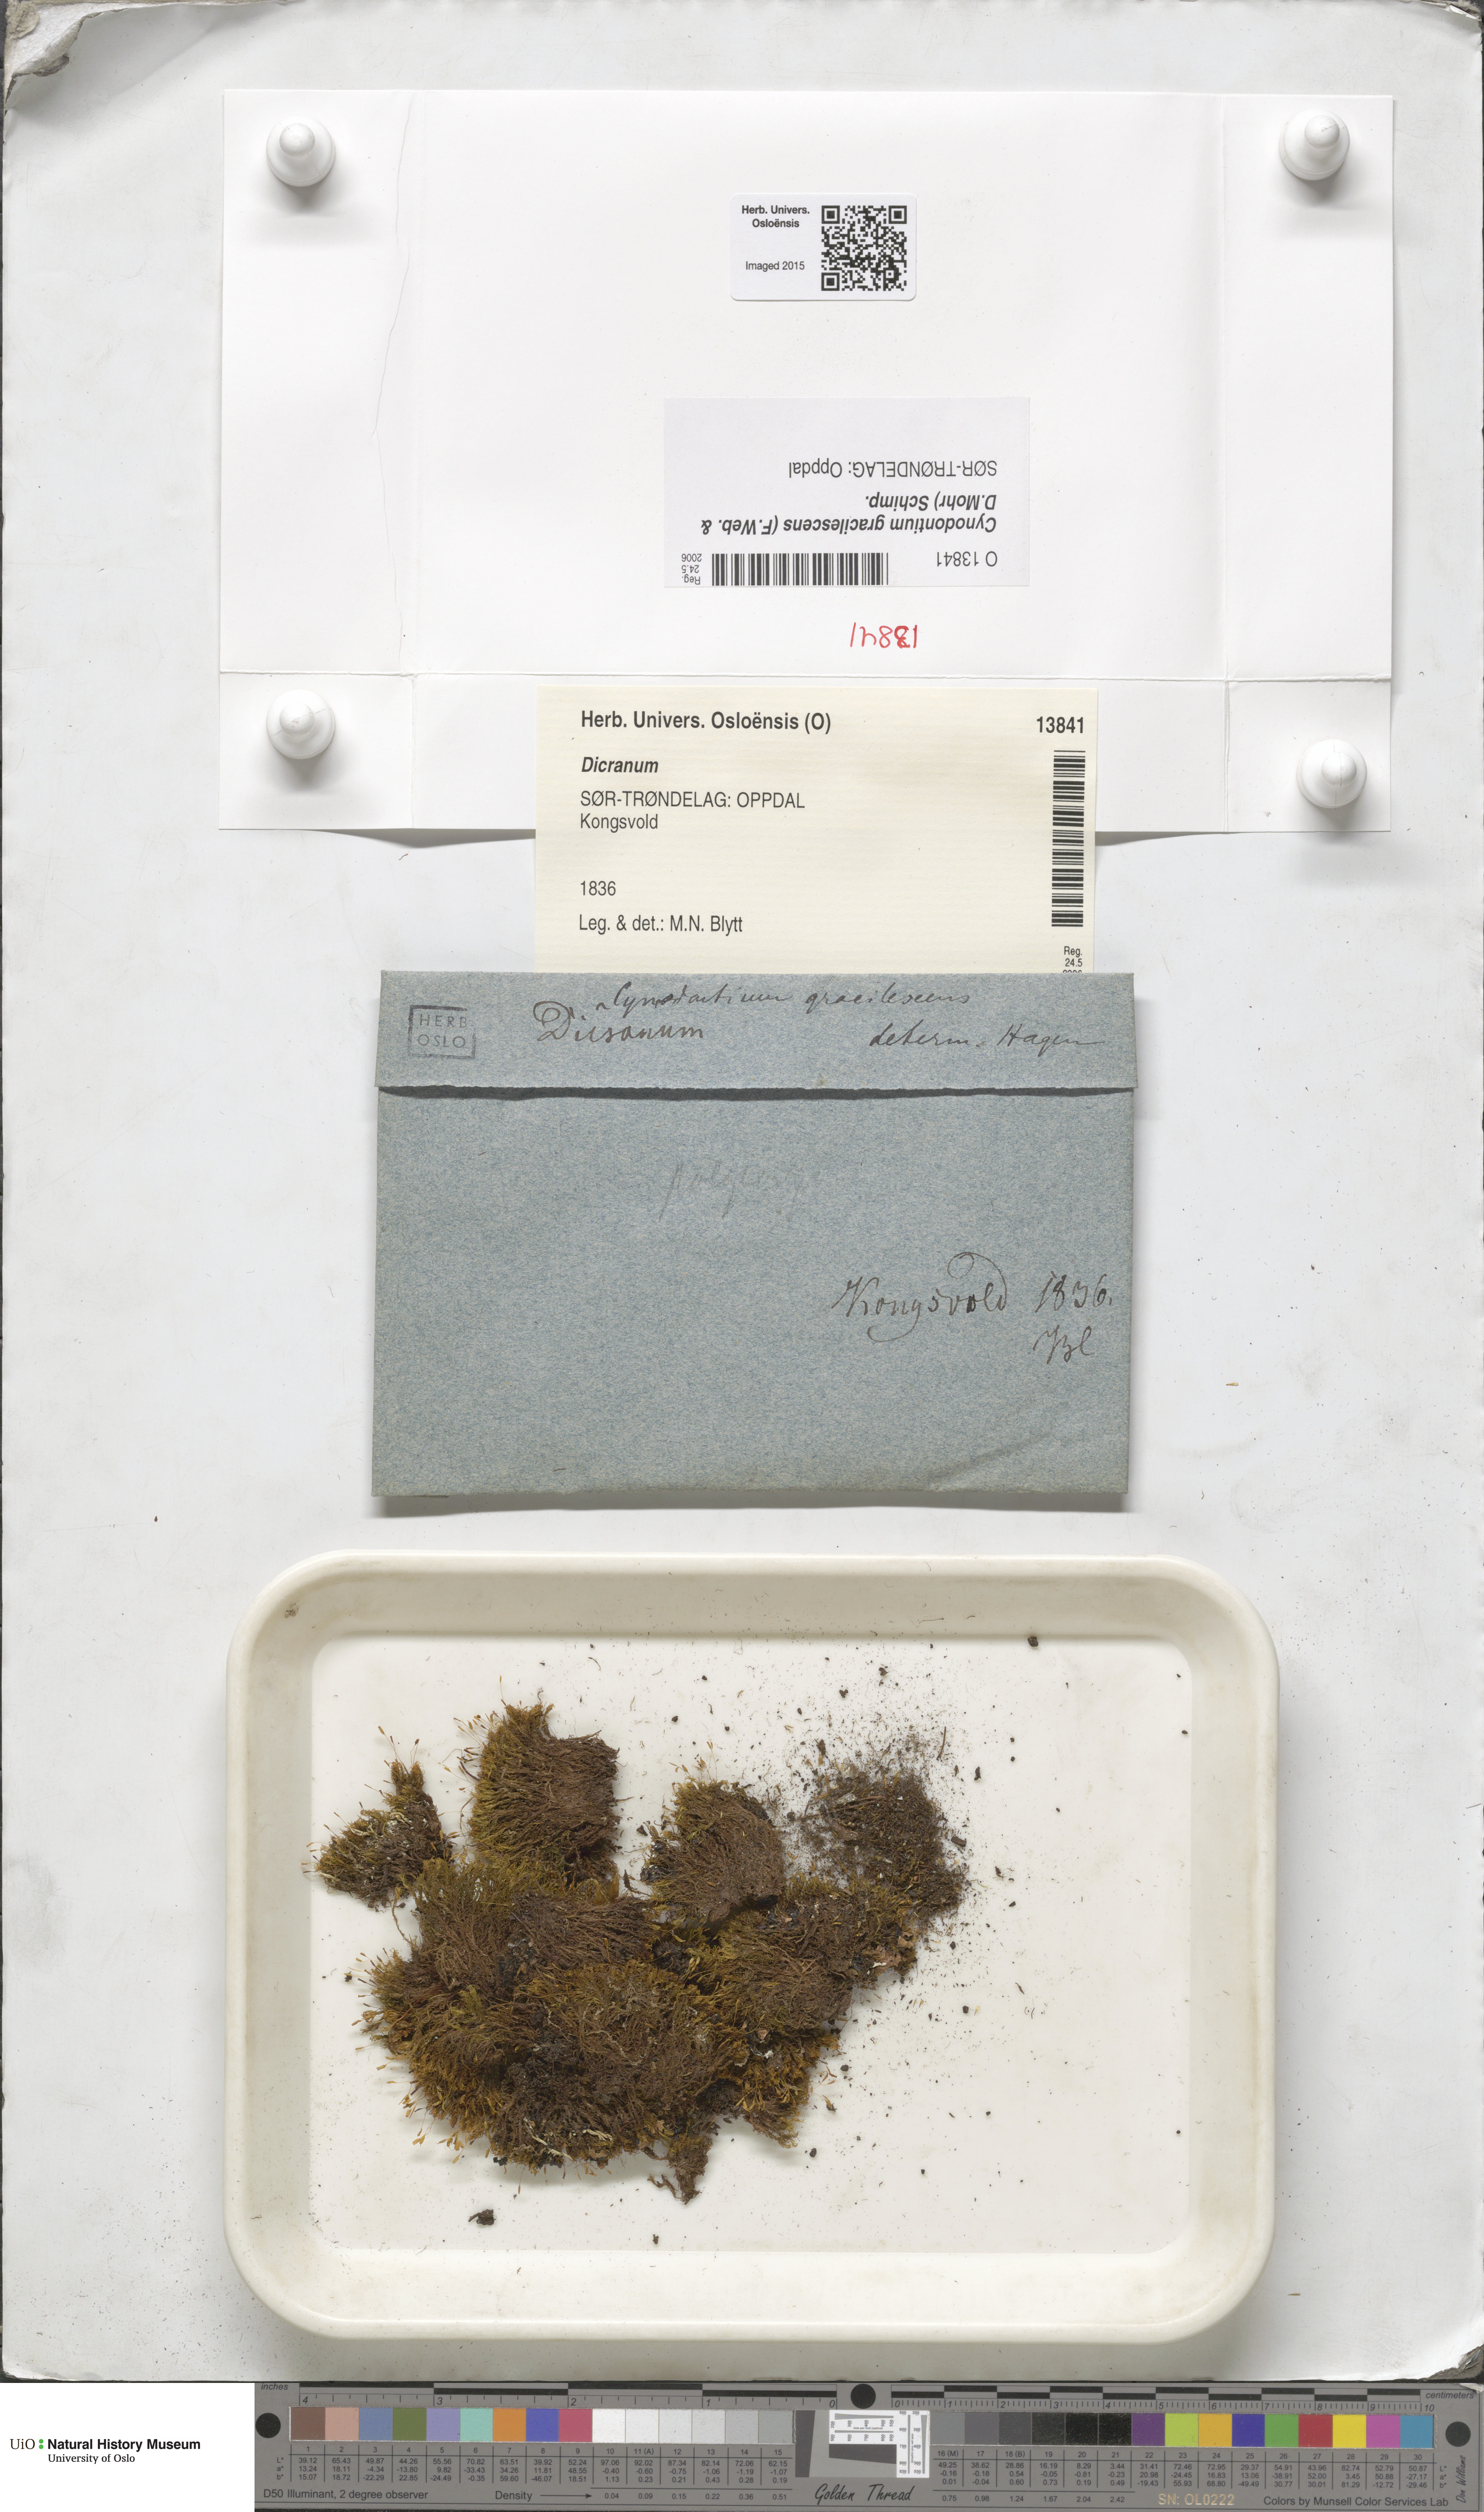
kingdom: Plantae
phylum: Bryophyta
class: Bryopsida
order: Dicranales
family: Rhabdoweisiaceae
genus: Cynodontium
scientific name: Cynodontium gracilescens
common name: Slender dogtooth moss
